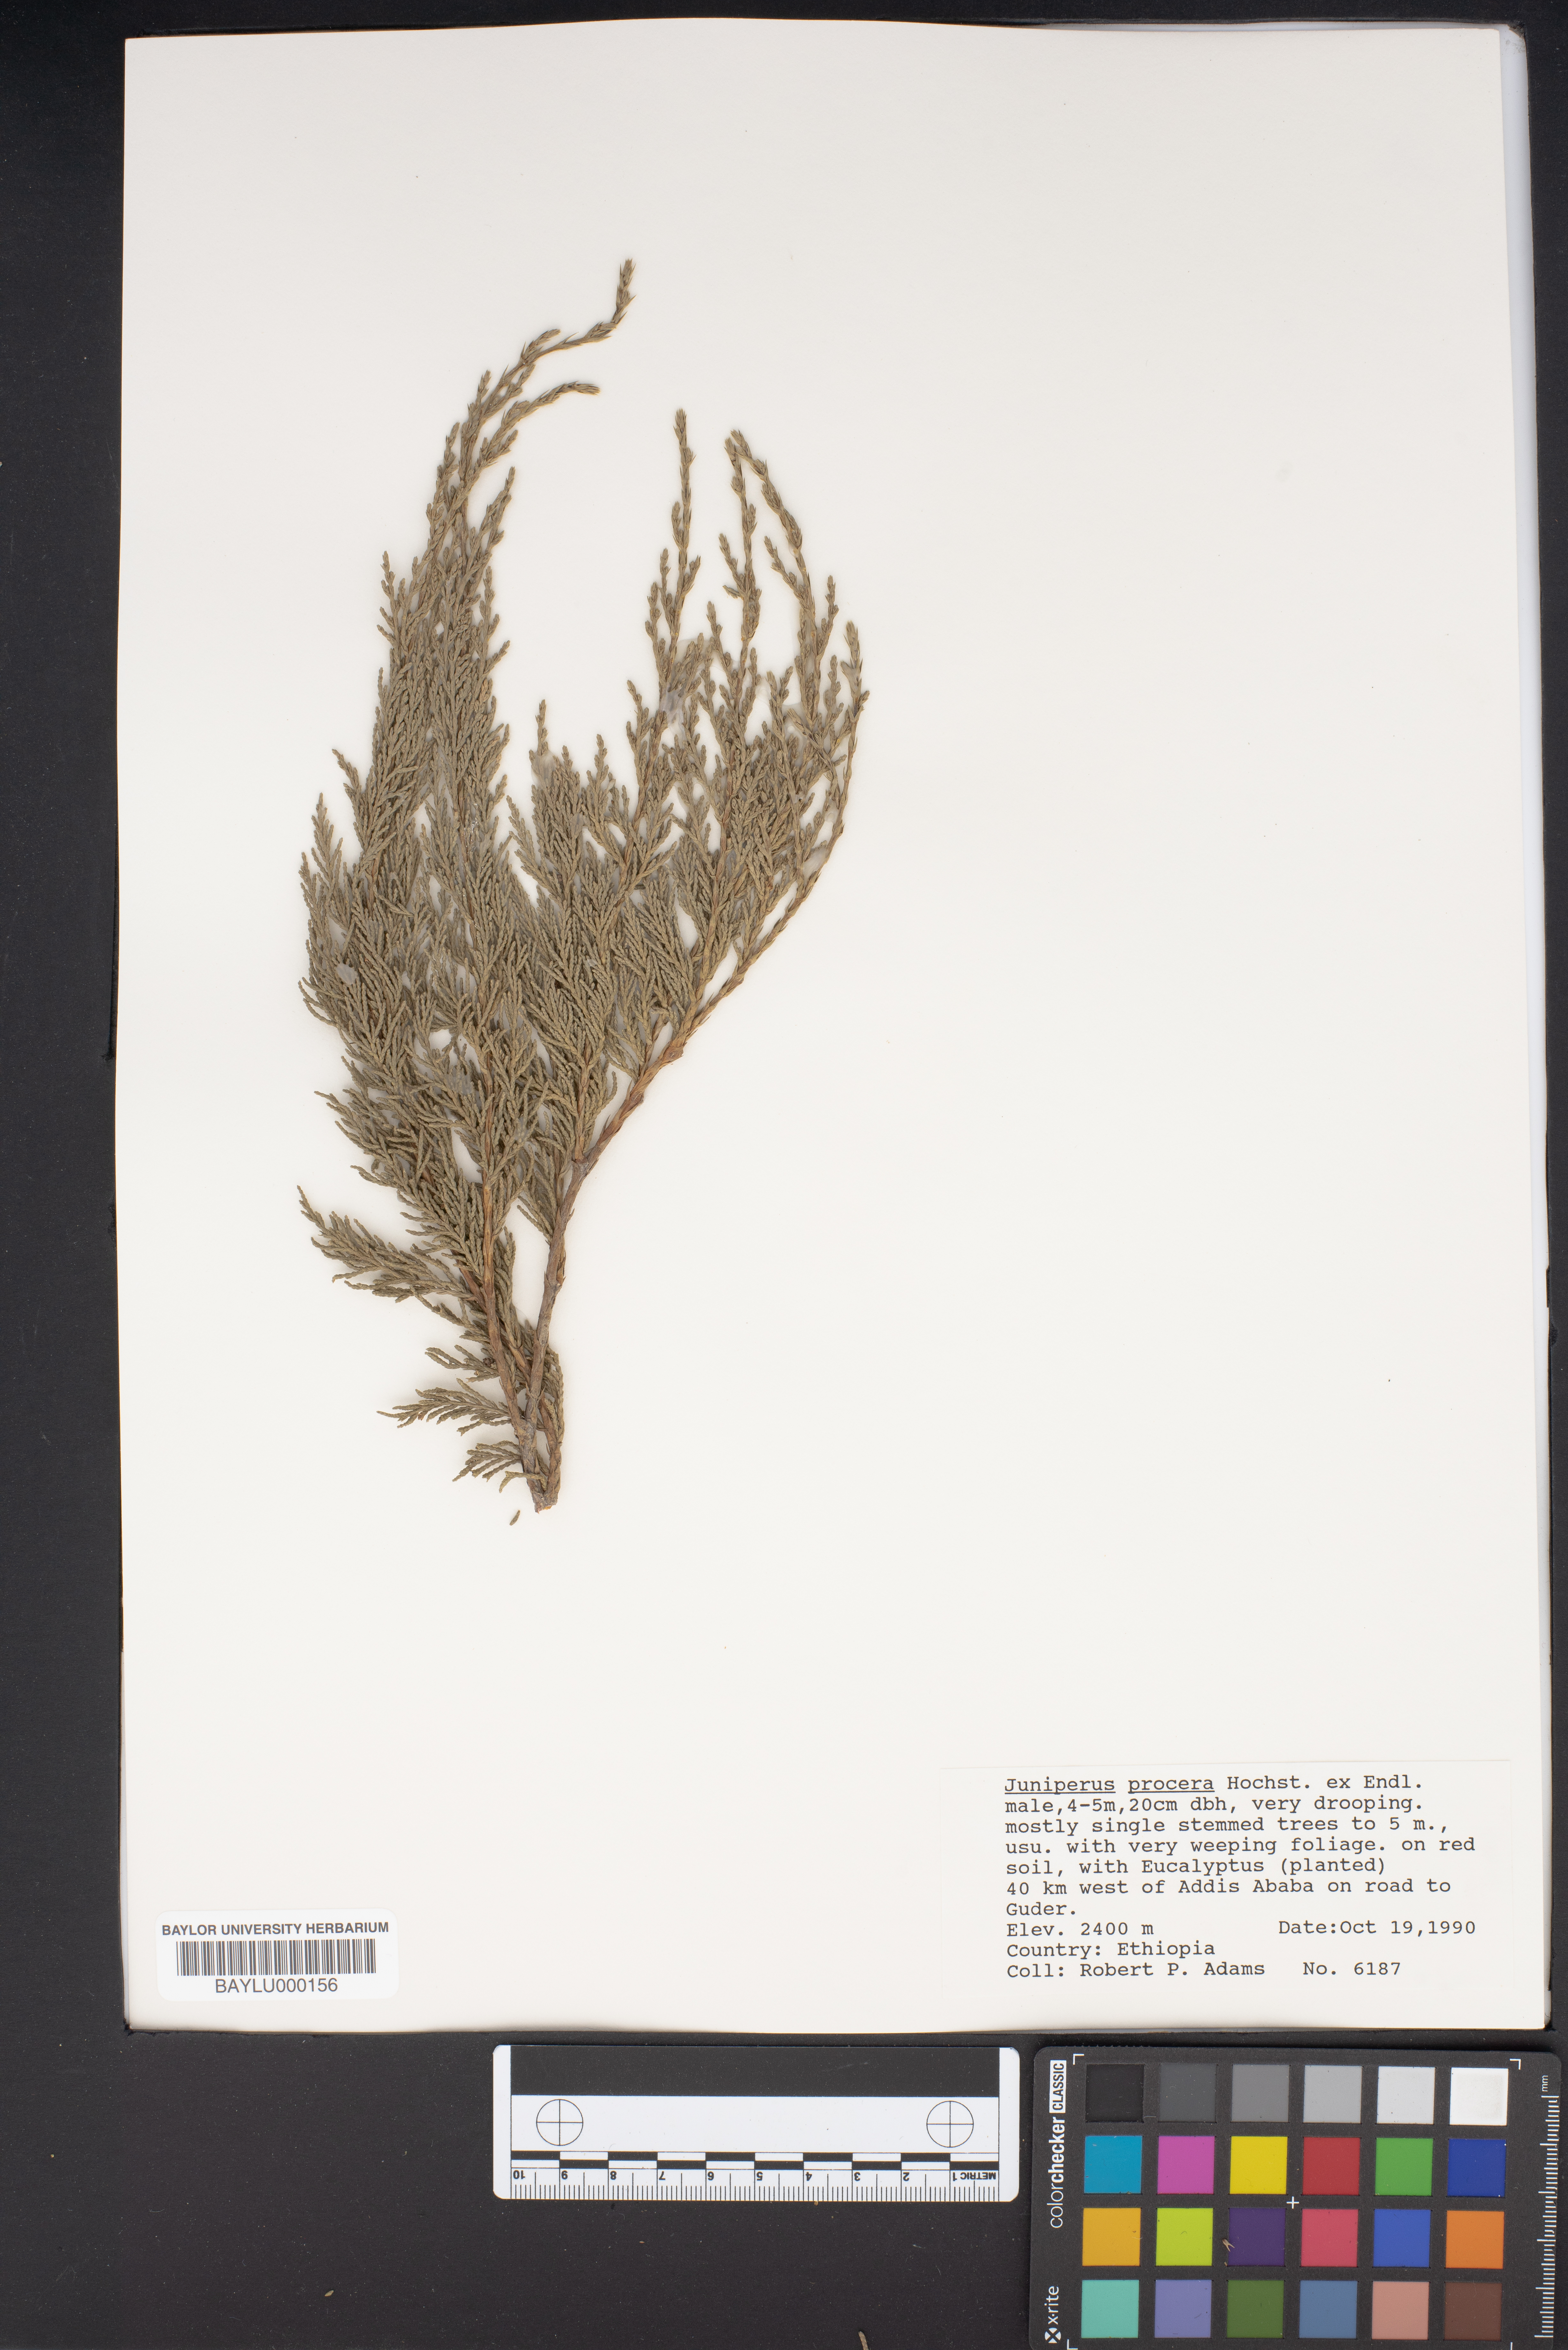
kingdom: Plantae
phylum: Tracheophyta
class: Pinopsida
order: Pinales
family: Cupressaceae
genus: Juniperus
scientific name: Juniperus procera
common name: African juniper
